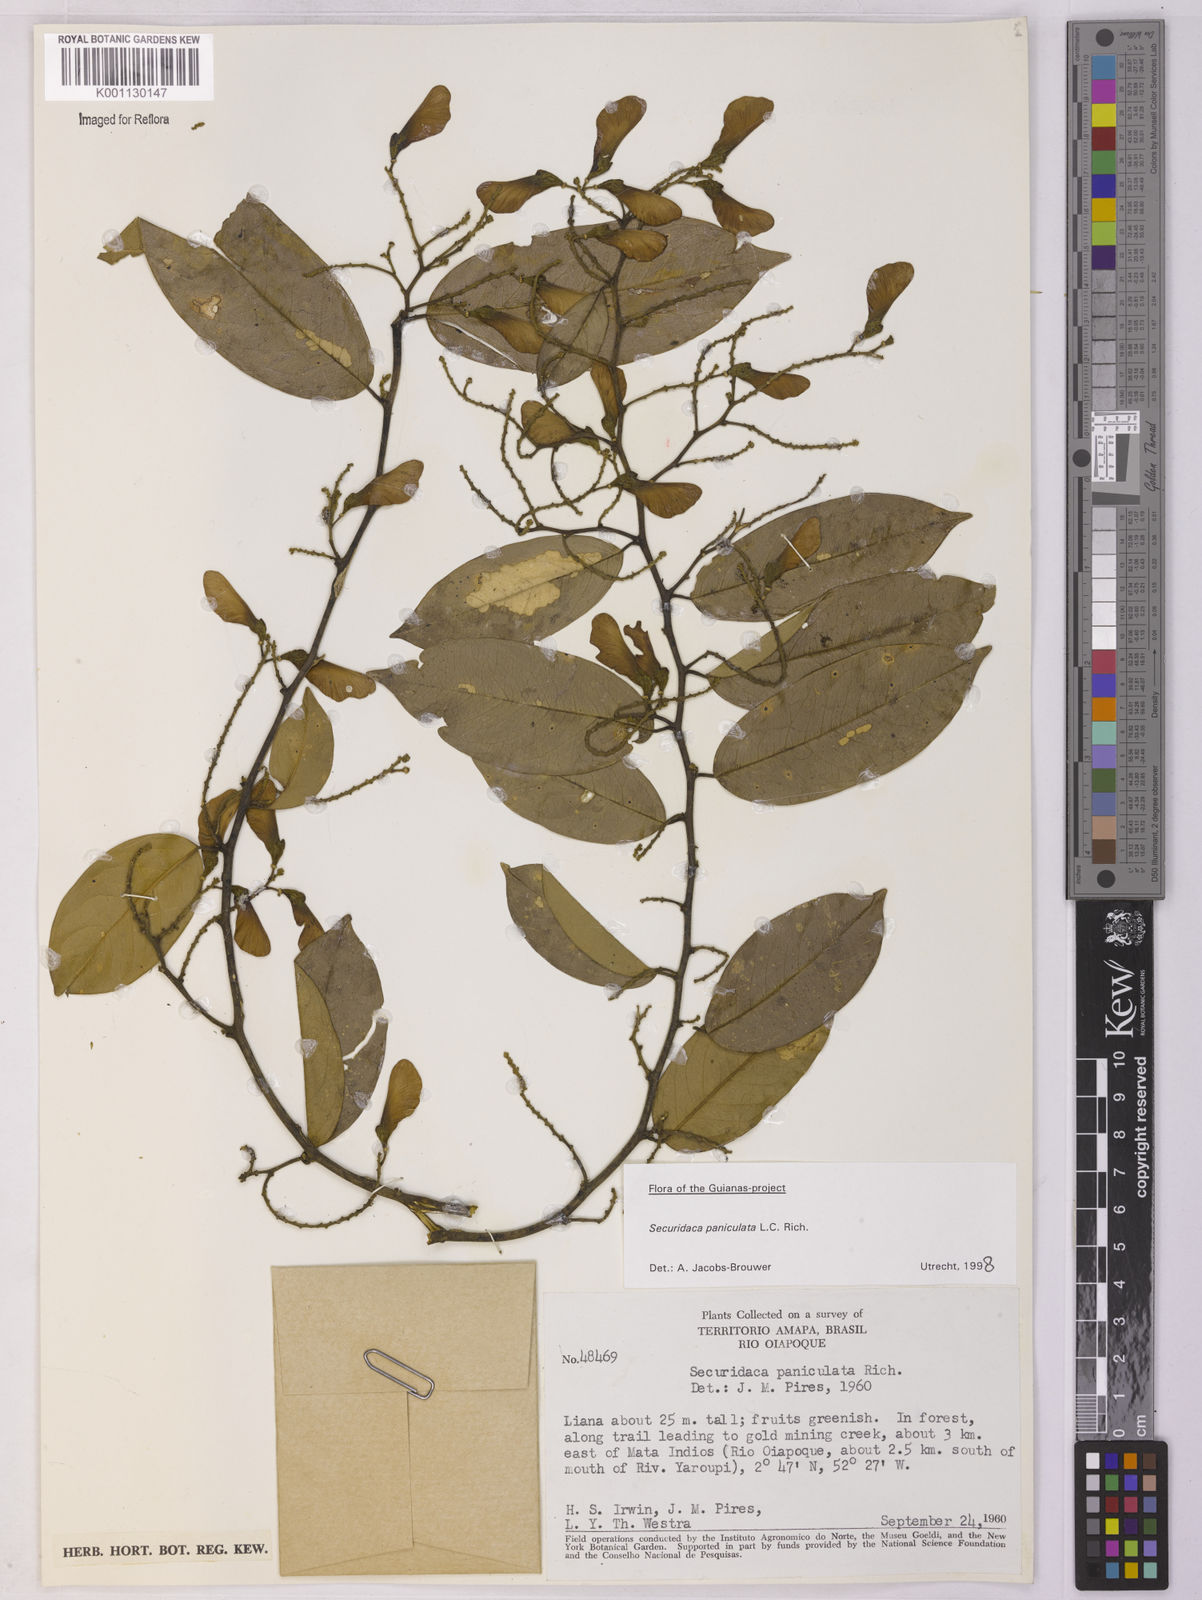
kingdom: Plantae
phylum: Tracheophyta
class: Magnoliopsida
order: Fabales
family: Polygalaceae
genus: Securidaca
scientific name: Securidaca paniculata
